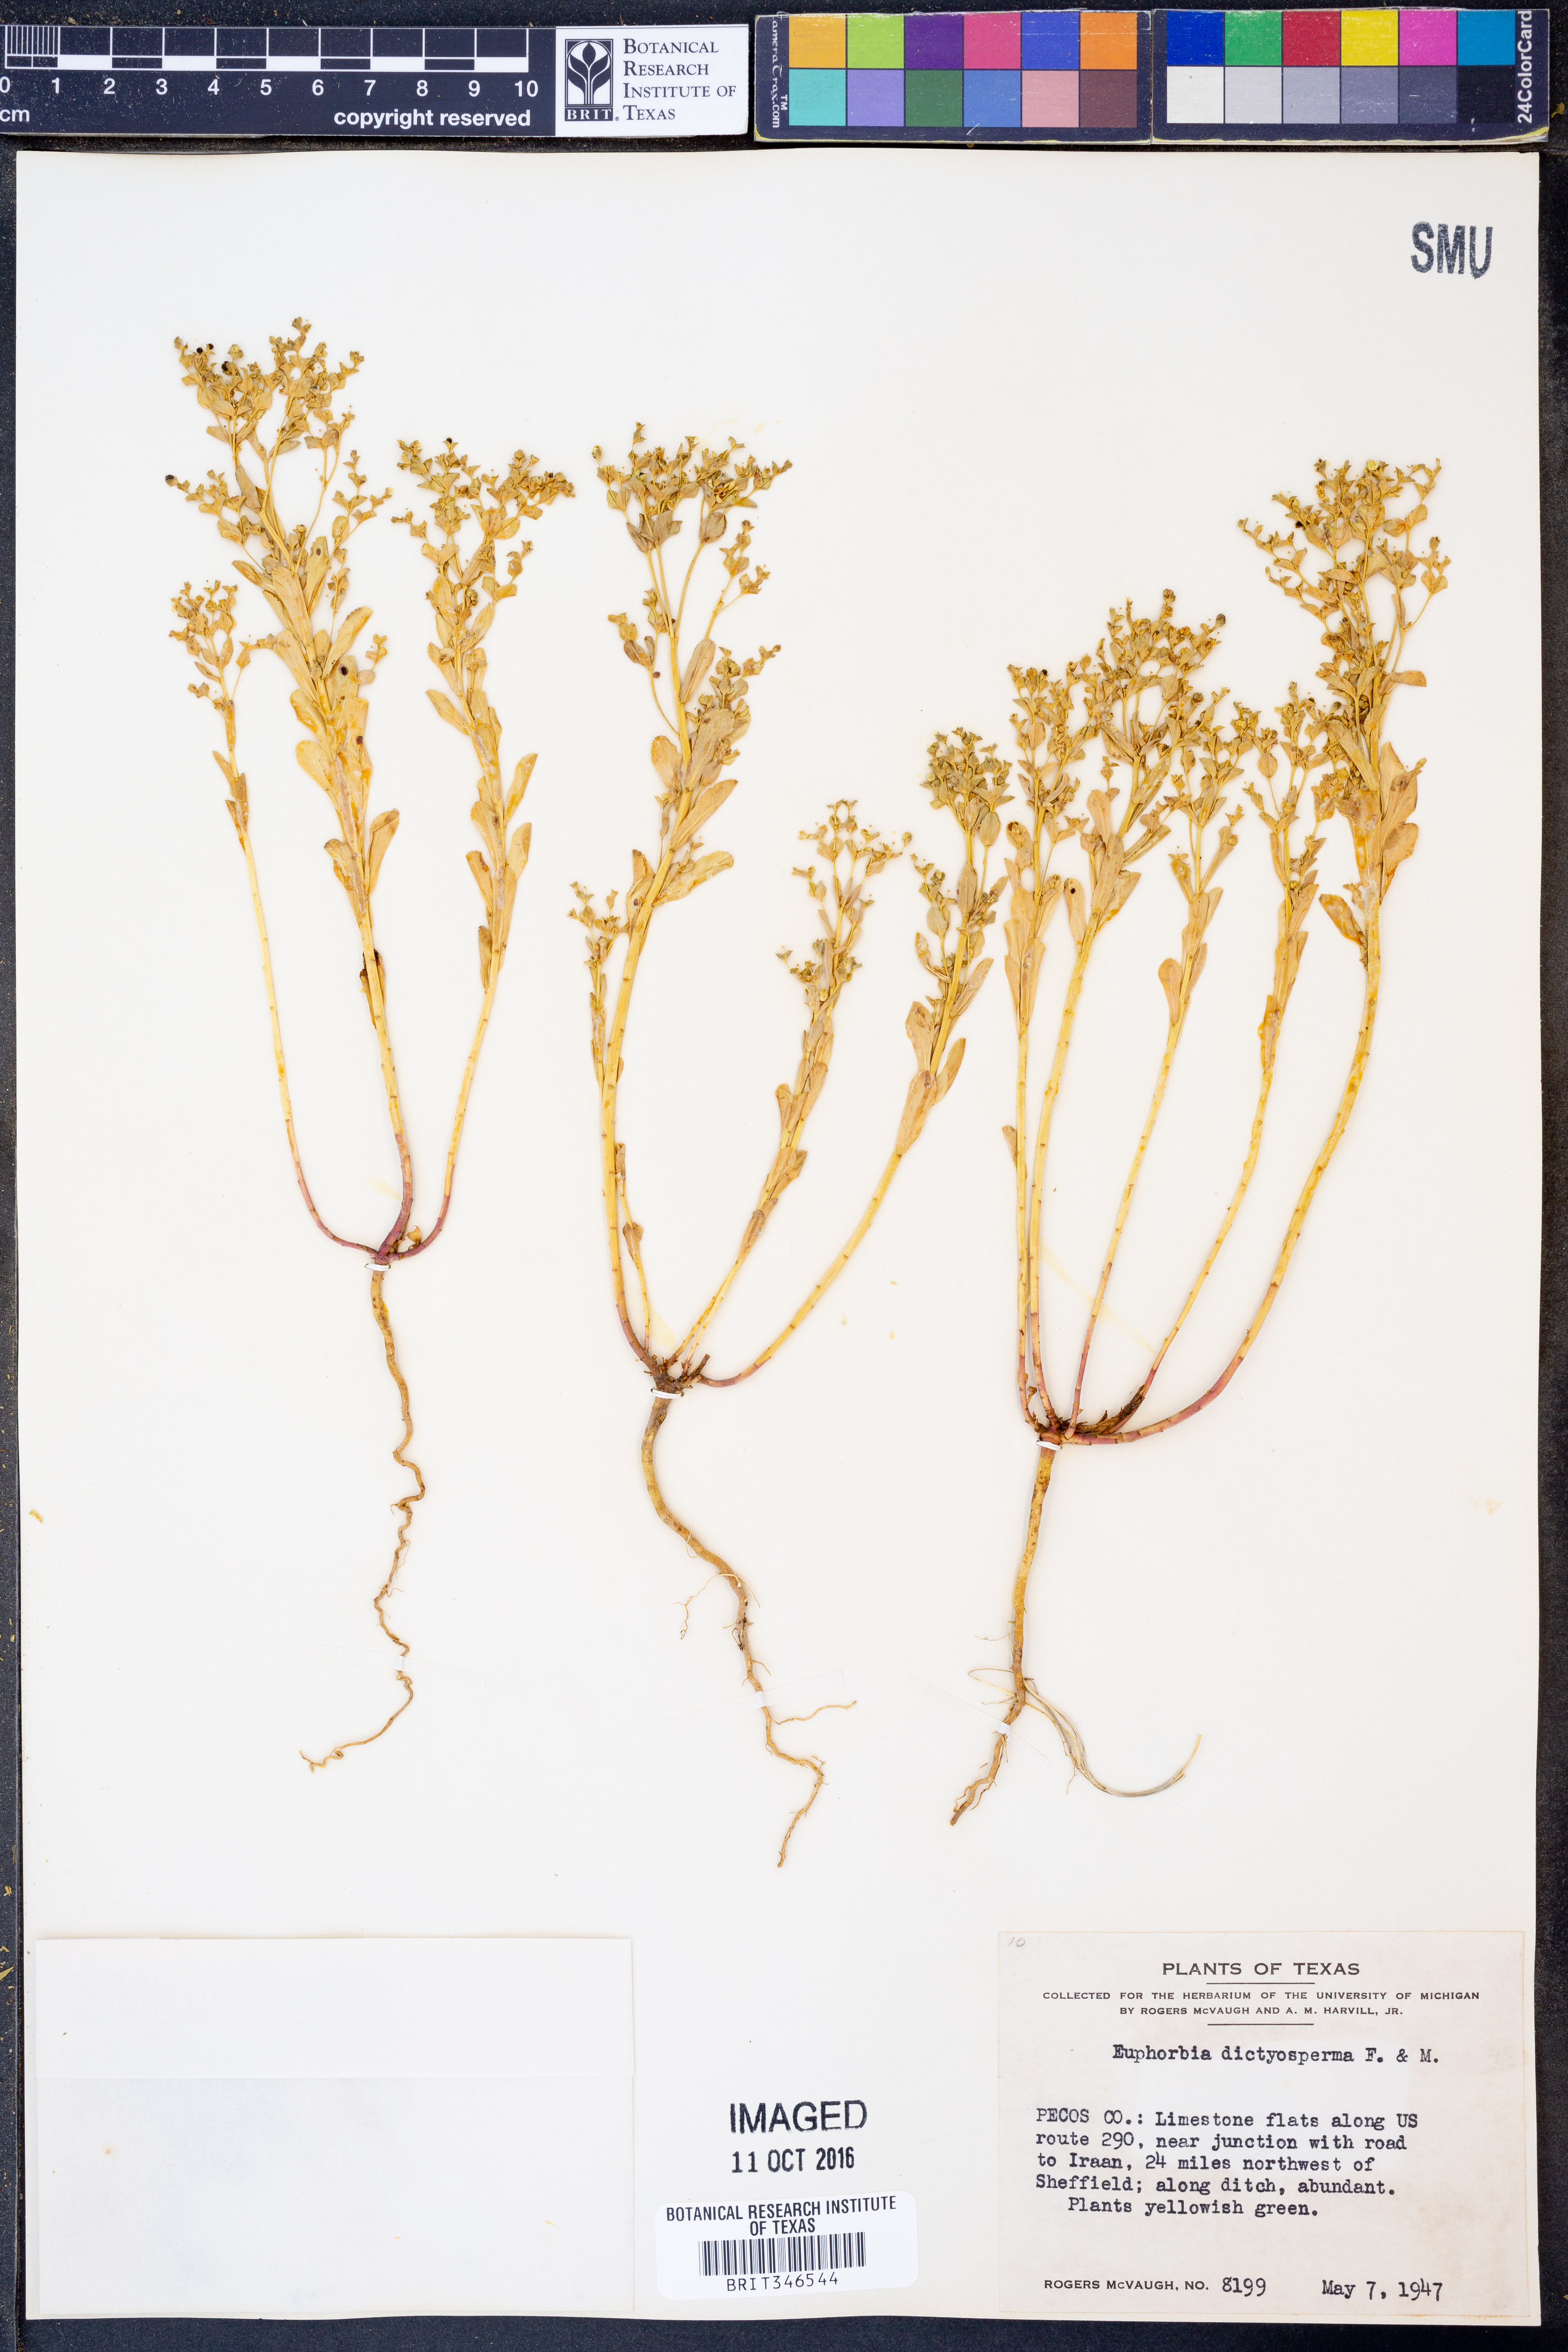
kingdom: Plantae
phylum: Tracheophyta
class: Magnoliopsida
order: Malpighiales
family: Euphorbiaceae
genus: Euphorbia
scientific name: Euphorbia spathulata
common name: Blunt spurge
